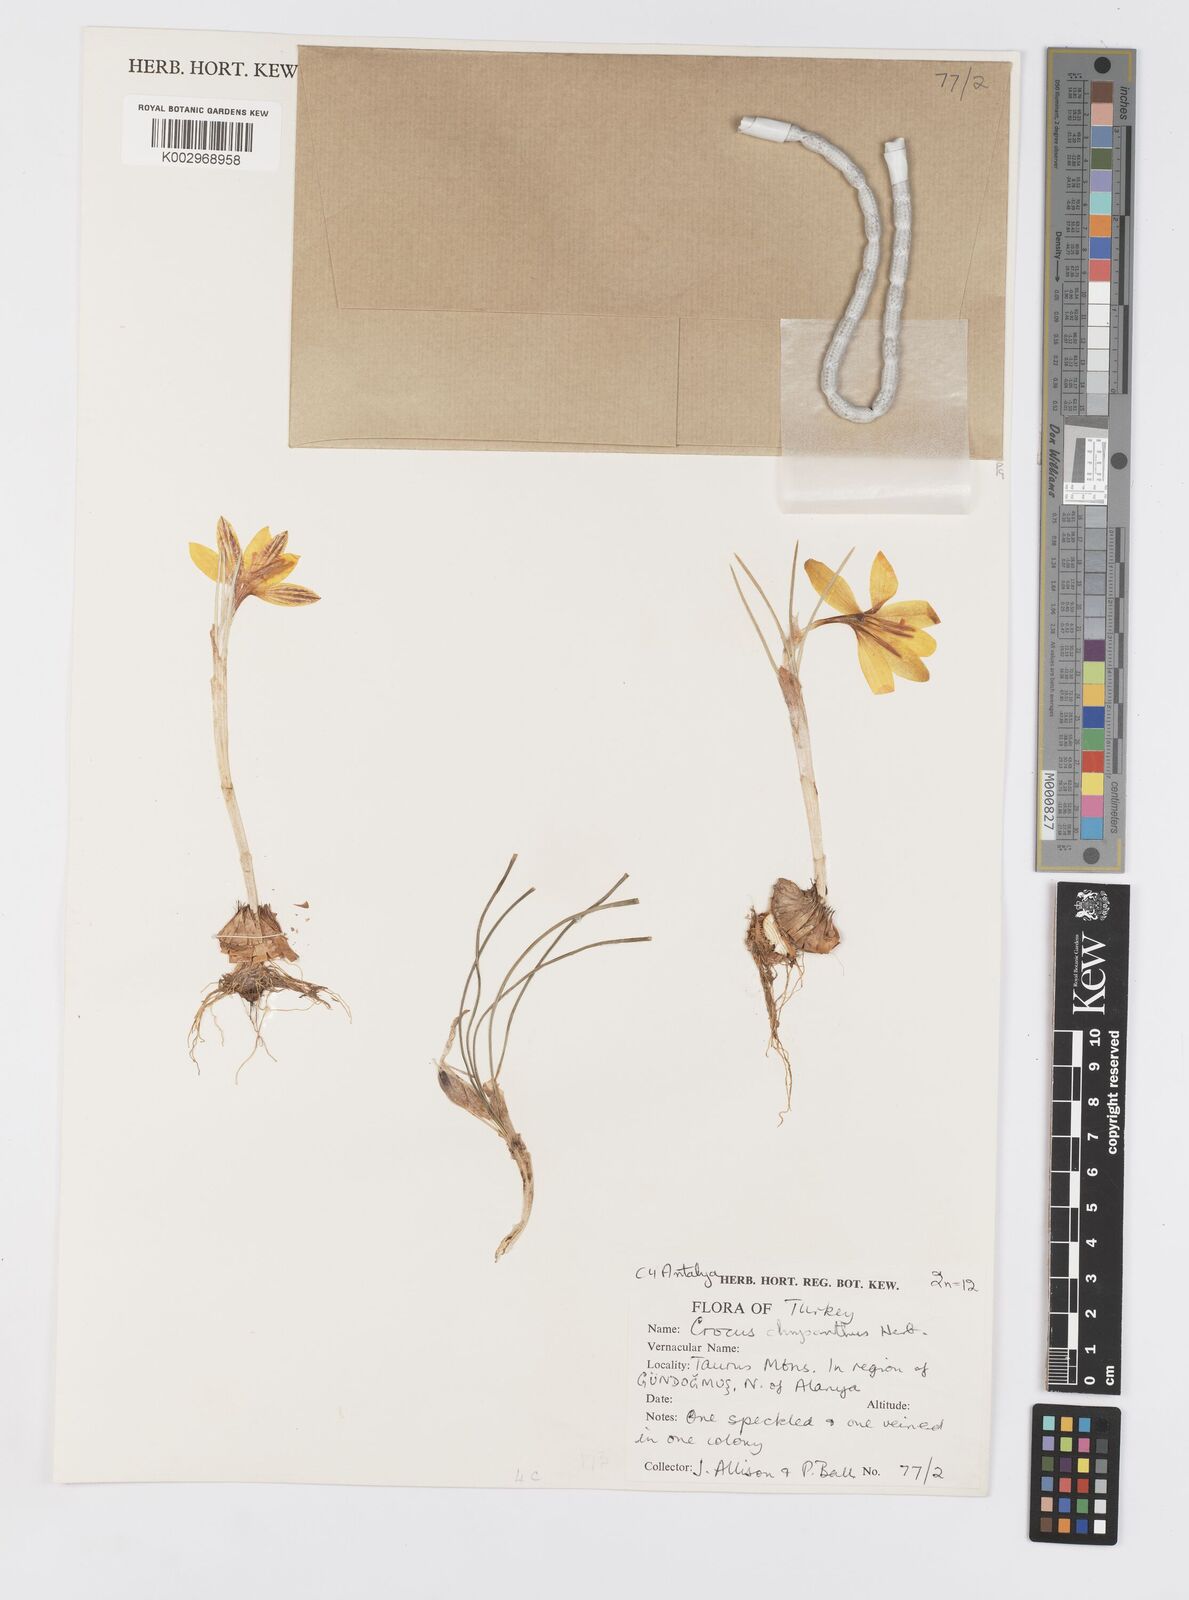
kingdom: Plantae
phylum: Tracheophyta
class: Liliopsida
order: Asparagales
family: Iridaceae
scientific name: Iridaceae
